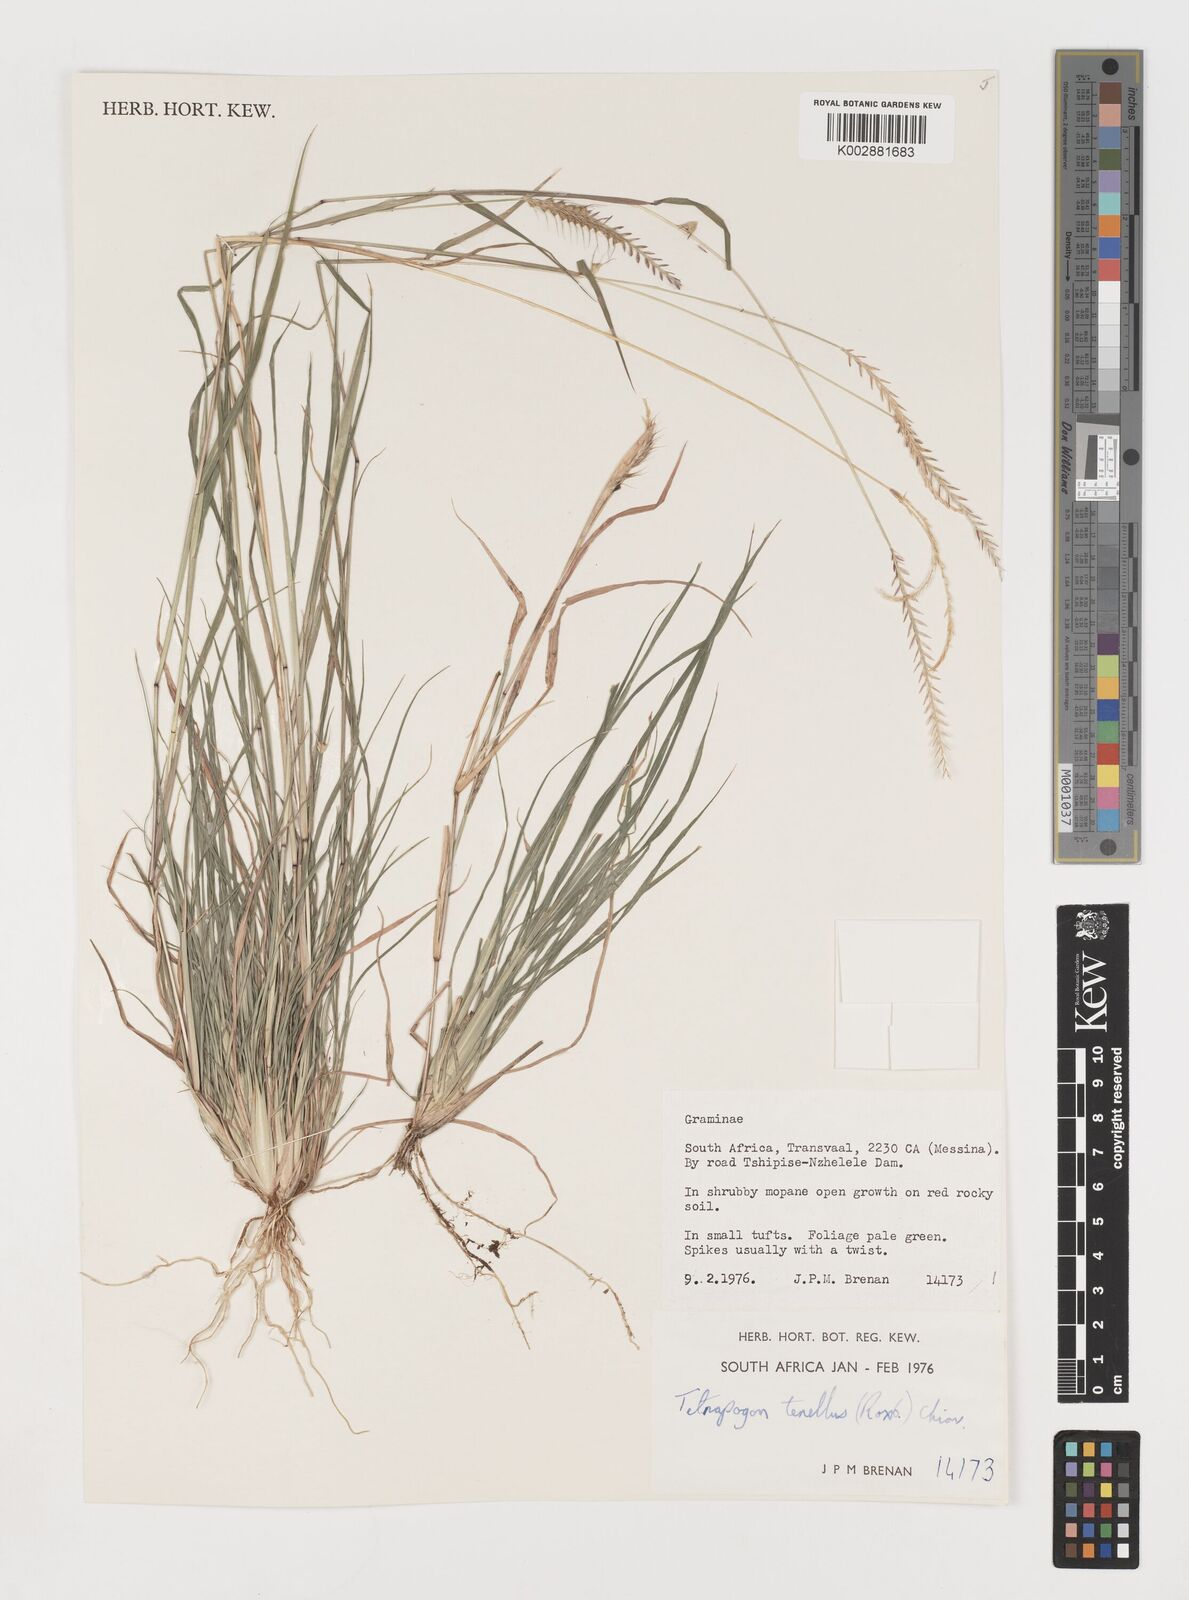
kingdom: Plantae
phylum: Tracheophyta
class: Liliopsida
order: Poales
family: Poaceae
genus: Tetrapogon
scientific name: Tetrapogon tenellus
